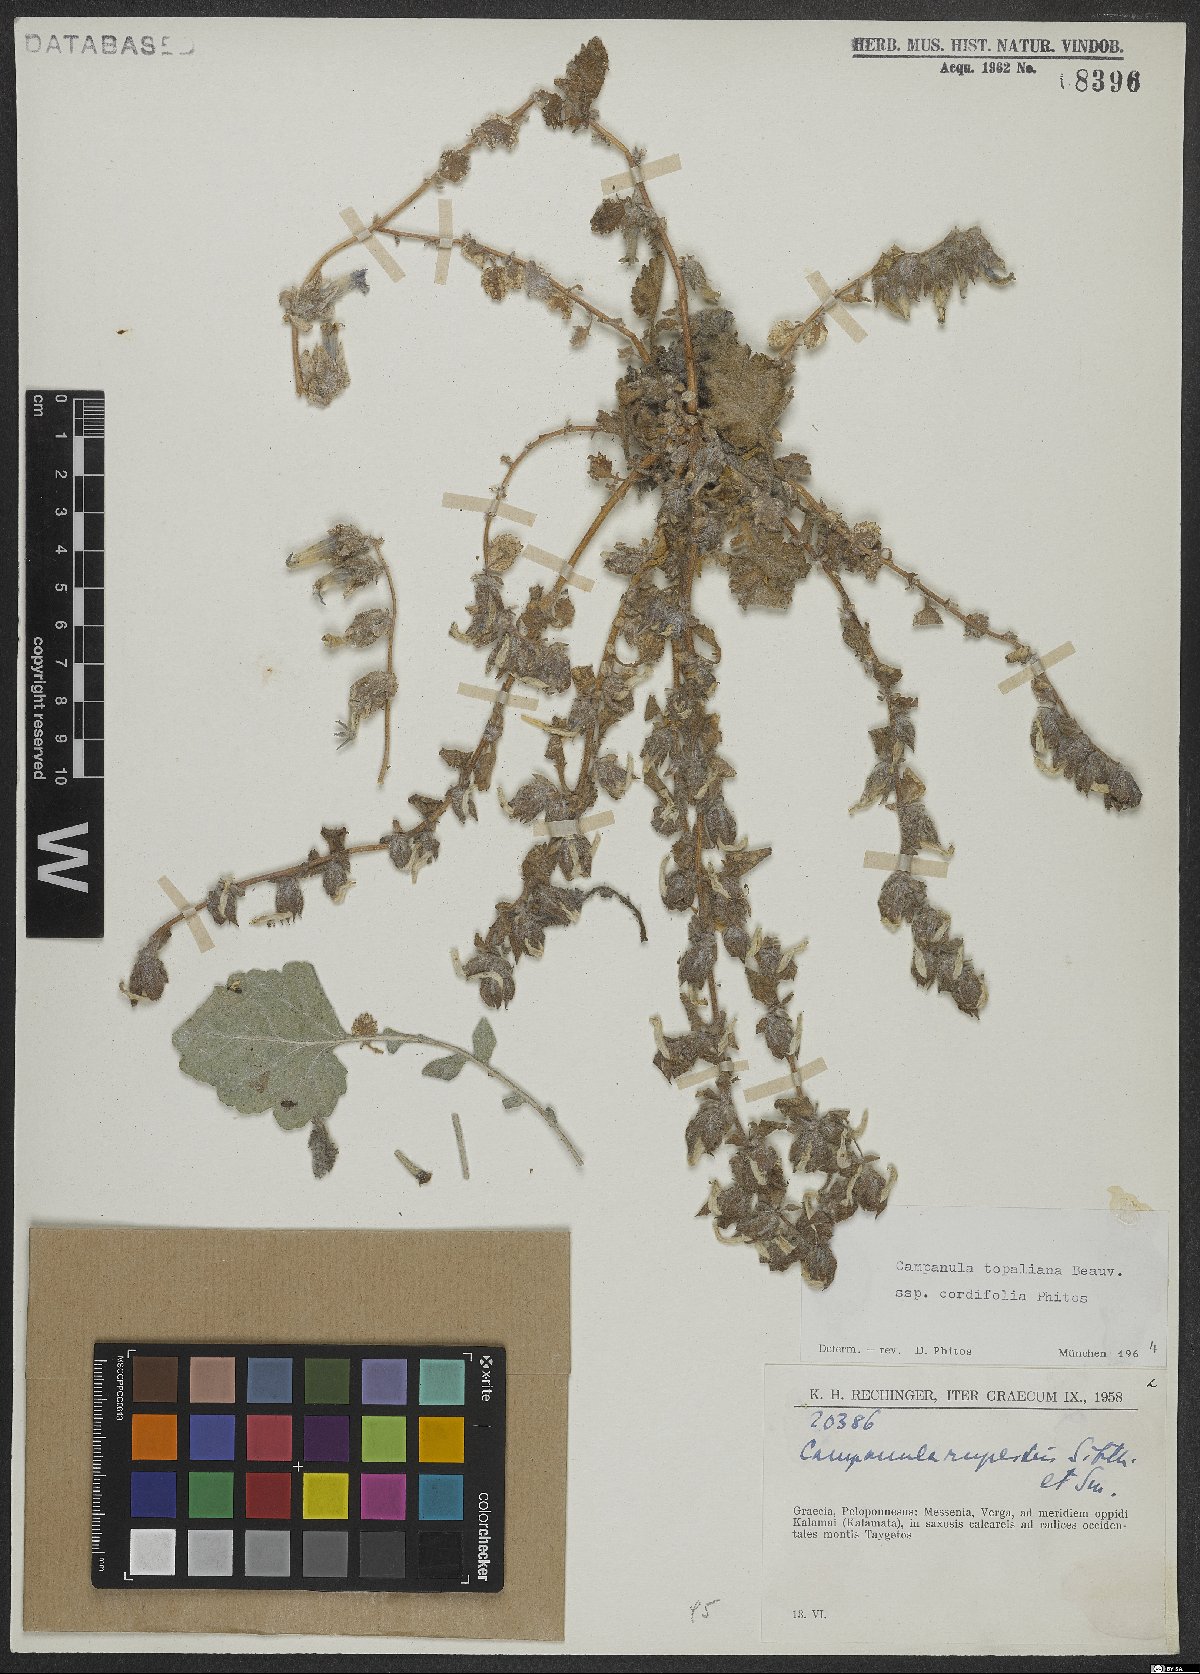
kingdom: Plantae
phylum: Tracheophyta
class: Magnoliopsida
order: Asterales
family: Campanulaceae
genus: Campanula
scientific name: Campanula topaliana
